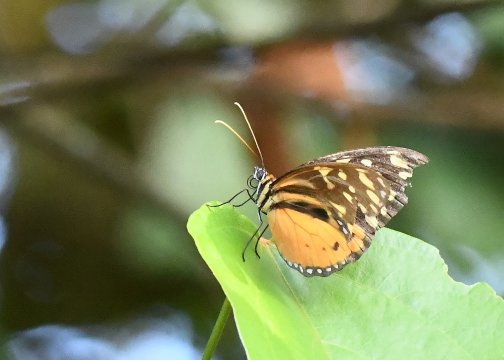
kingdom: Animalia
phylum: Arthropoda
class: Insecta
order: Lepidoptera
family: Nymphalidae
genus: Tithorea
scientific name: Tithorea harmonia
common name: Harmonia Tigerwing
